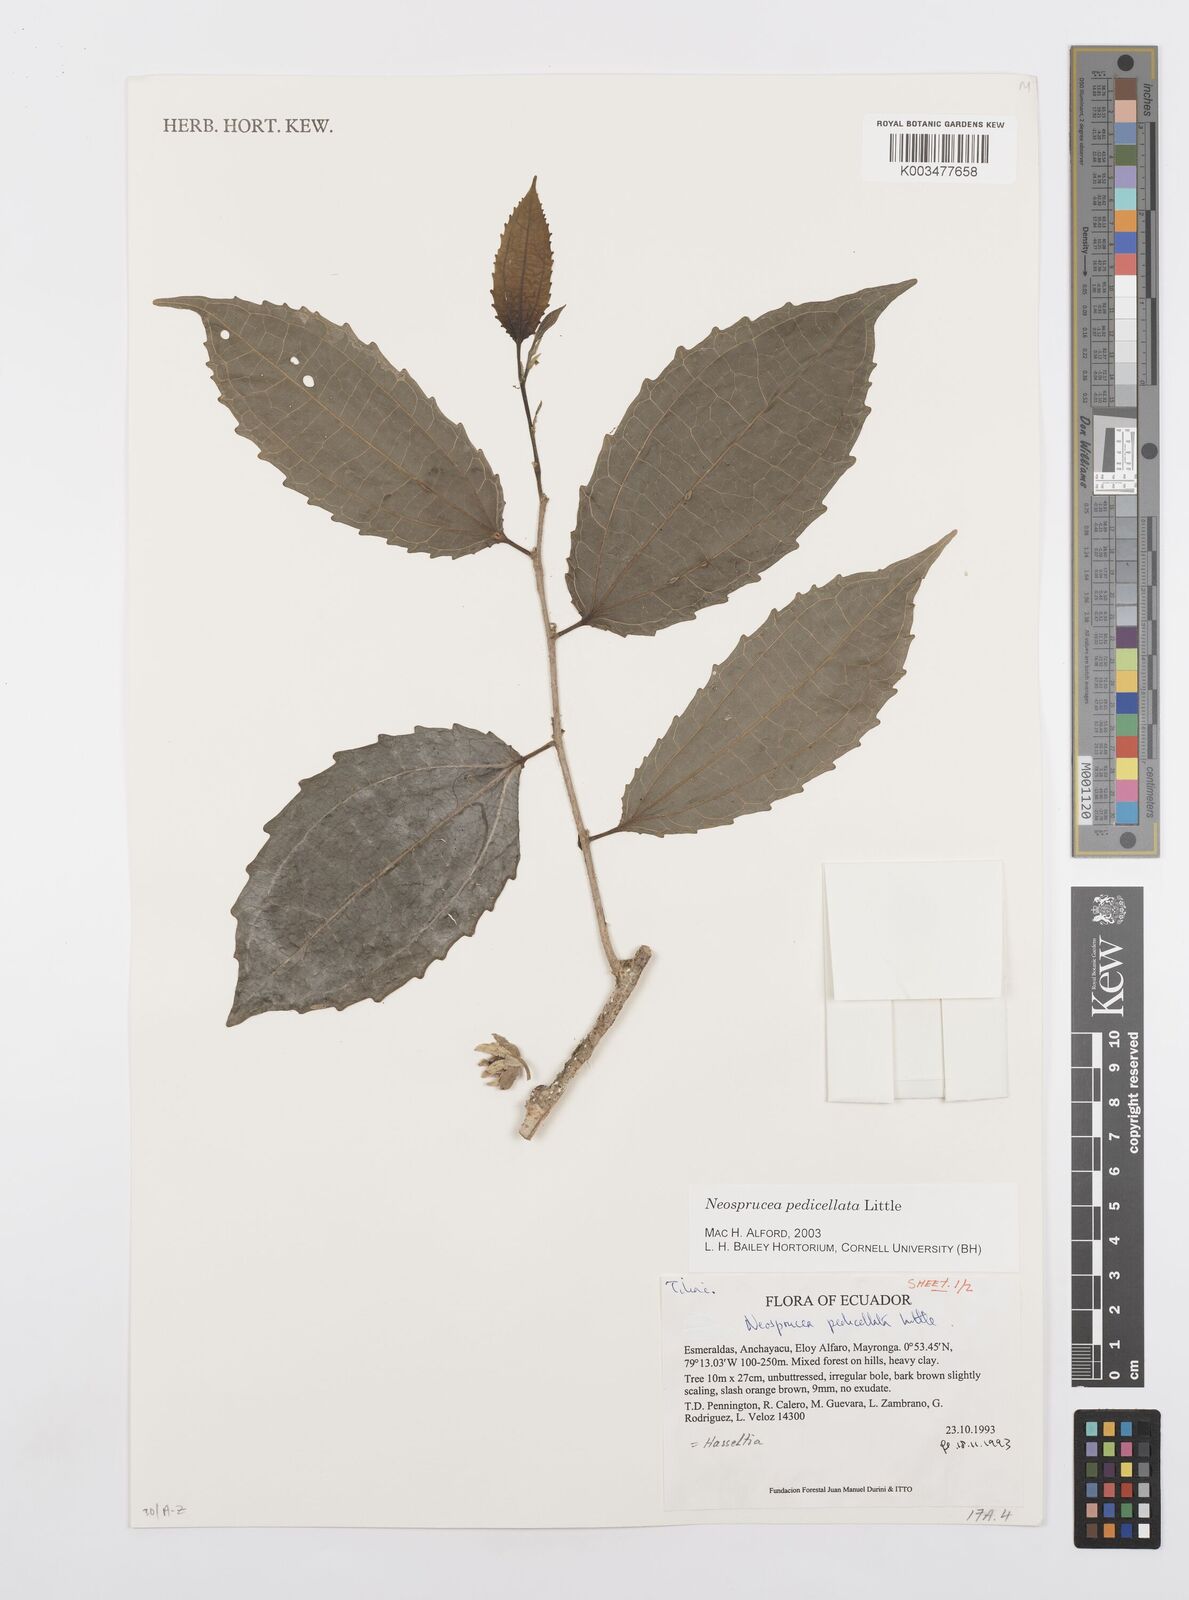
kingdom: Plantae
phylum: Tracheophyta
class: Magnoliopsida
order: Malpighiales
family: Salicaceae
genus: Neosprucea
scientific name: Neosprucea pedicellata
